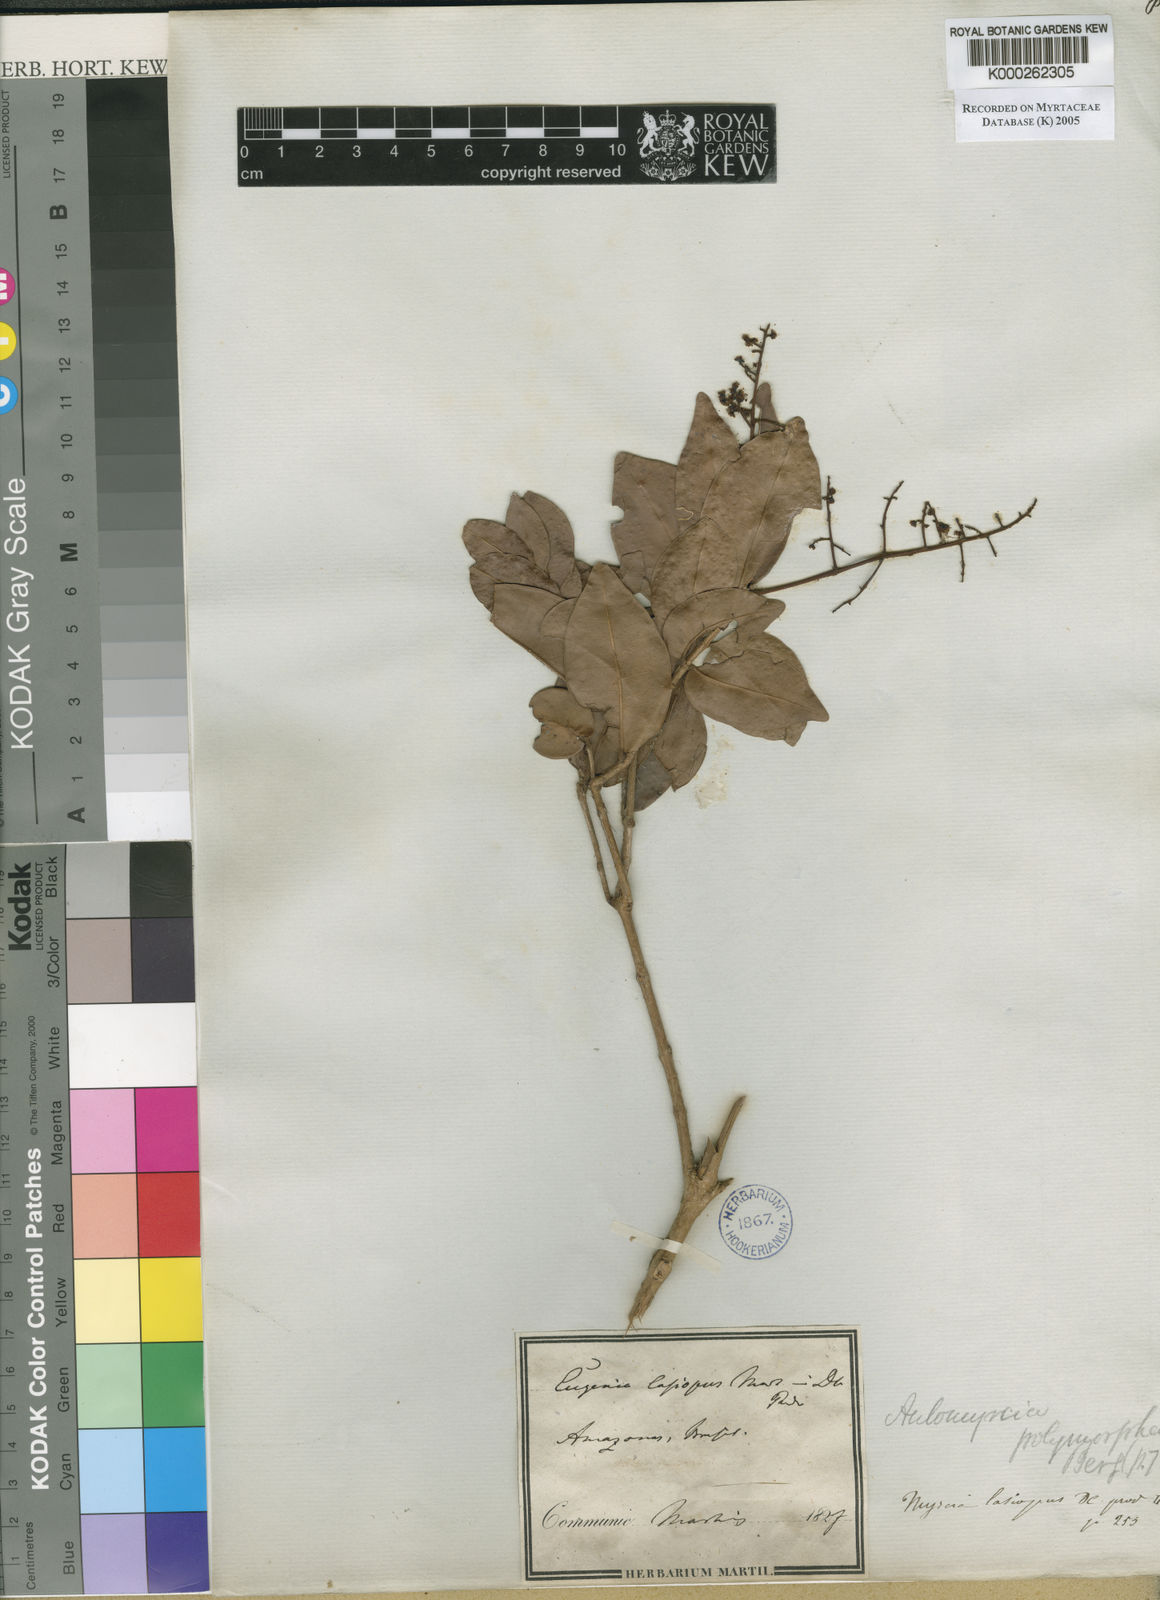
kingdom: Plantae
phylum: Tracheophyta
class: Magnoliopsida
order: Myrtales
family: Myrtaceae
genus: Myrcia
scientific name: Myrcia decorticans
